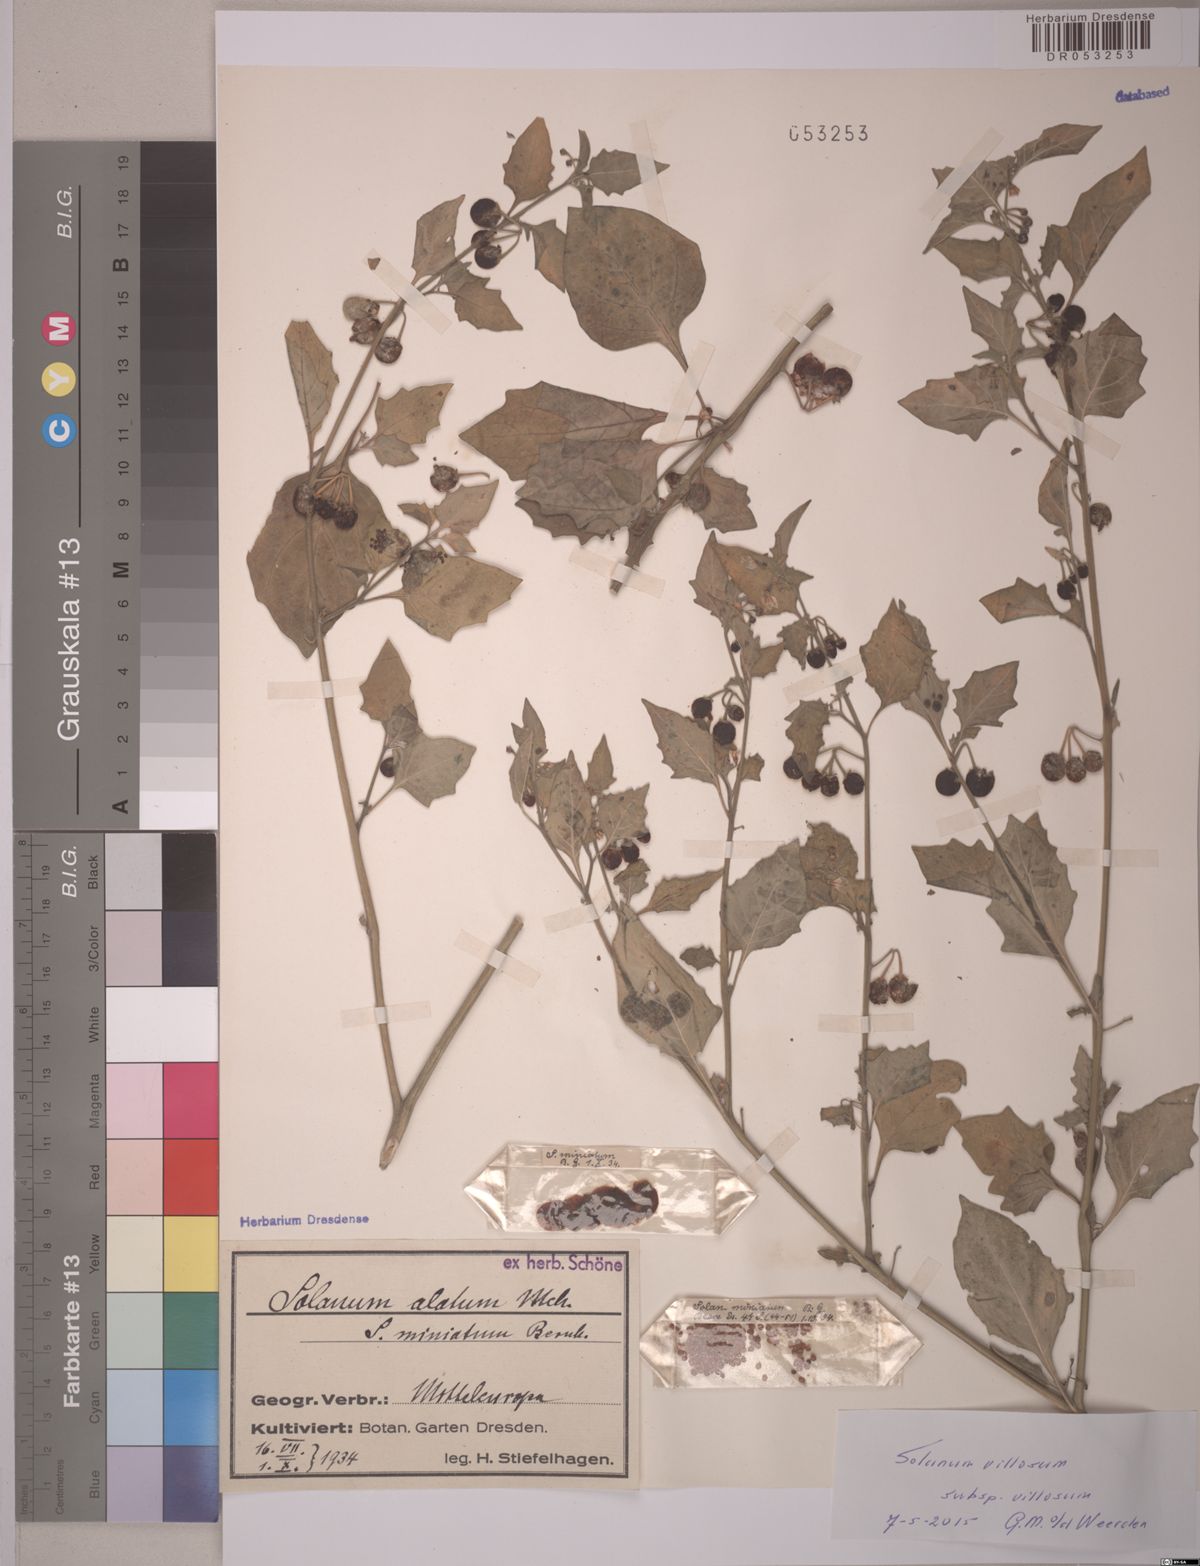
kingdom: Plantae
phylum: Tracheophyta
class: Magnoliopsida
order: Solanales
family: Solanaceae
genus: Solanum
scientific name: Solanum villosum
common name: Red nightshade
